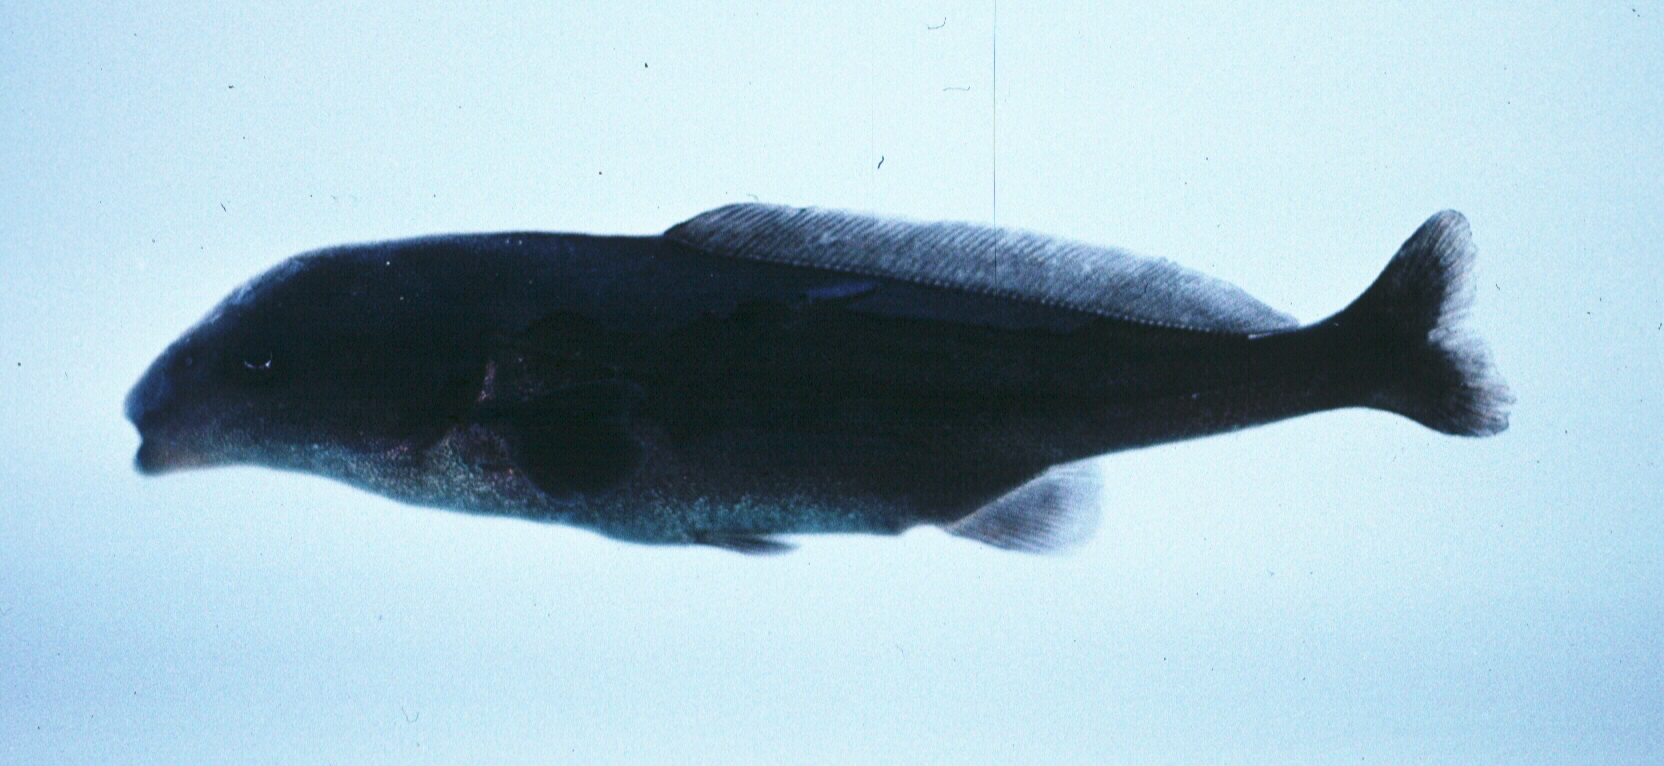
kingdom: Animalia
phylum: Chordata
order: Osteoglossiformes
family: Mormyridae
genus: Mormyrus
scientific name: Mormyrus longirostris
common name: Eastern bottlenose
